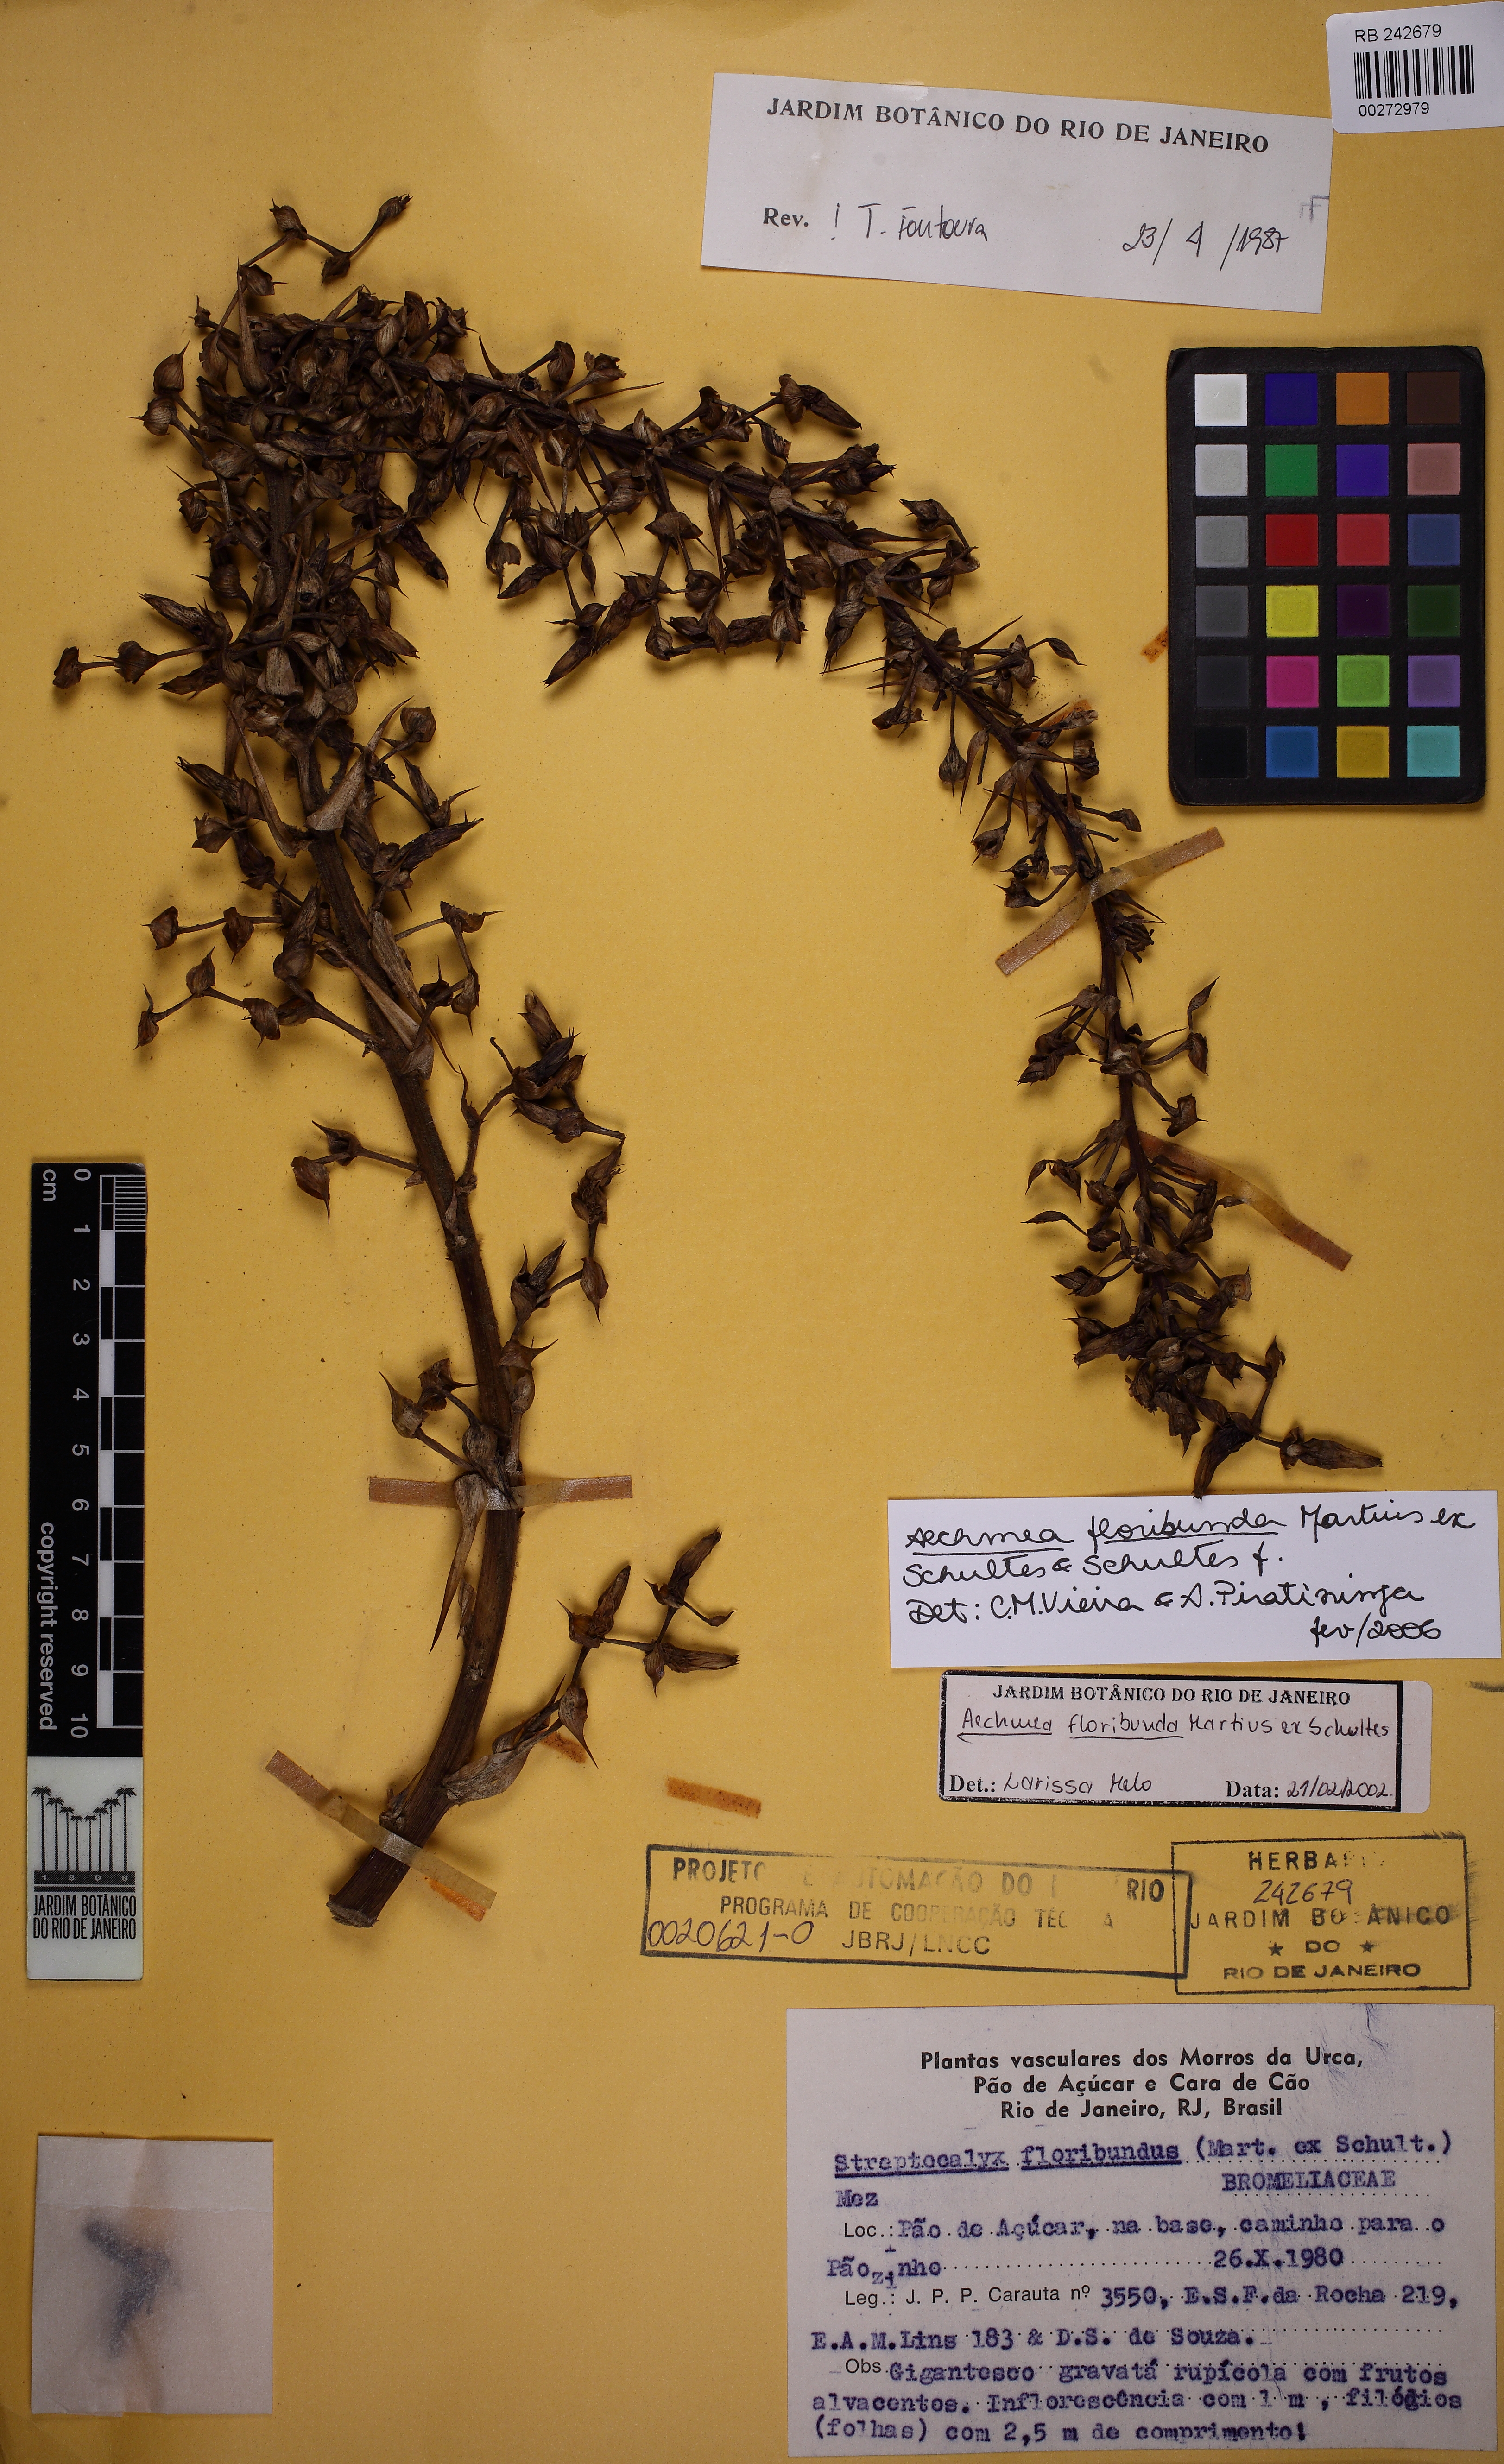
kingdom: Plantae
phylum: Tracheophyta
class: Liliopsida
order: Poales
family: Bromeliaceae
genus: Aechmea
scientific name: Aechmea floribunda
